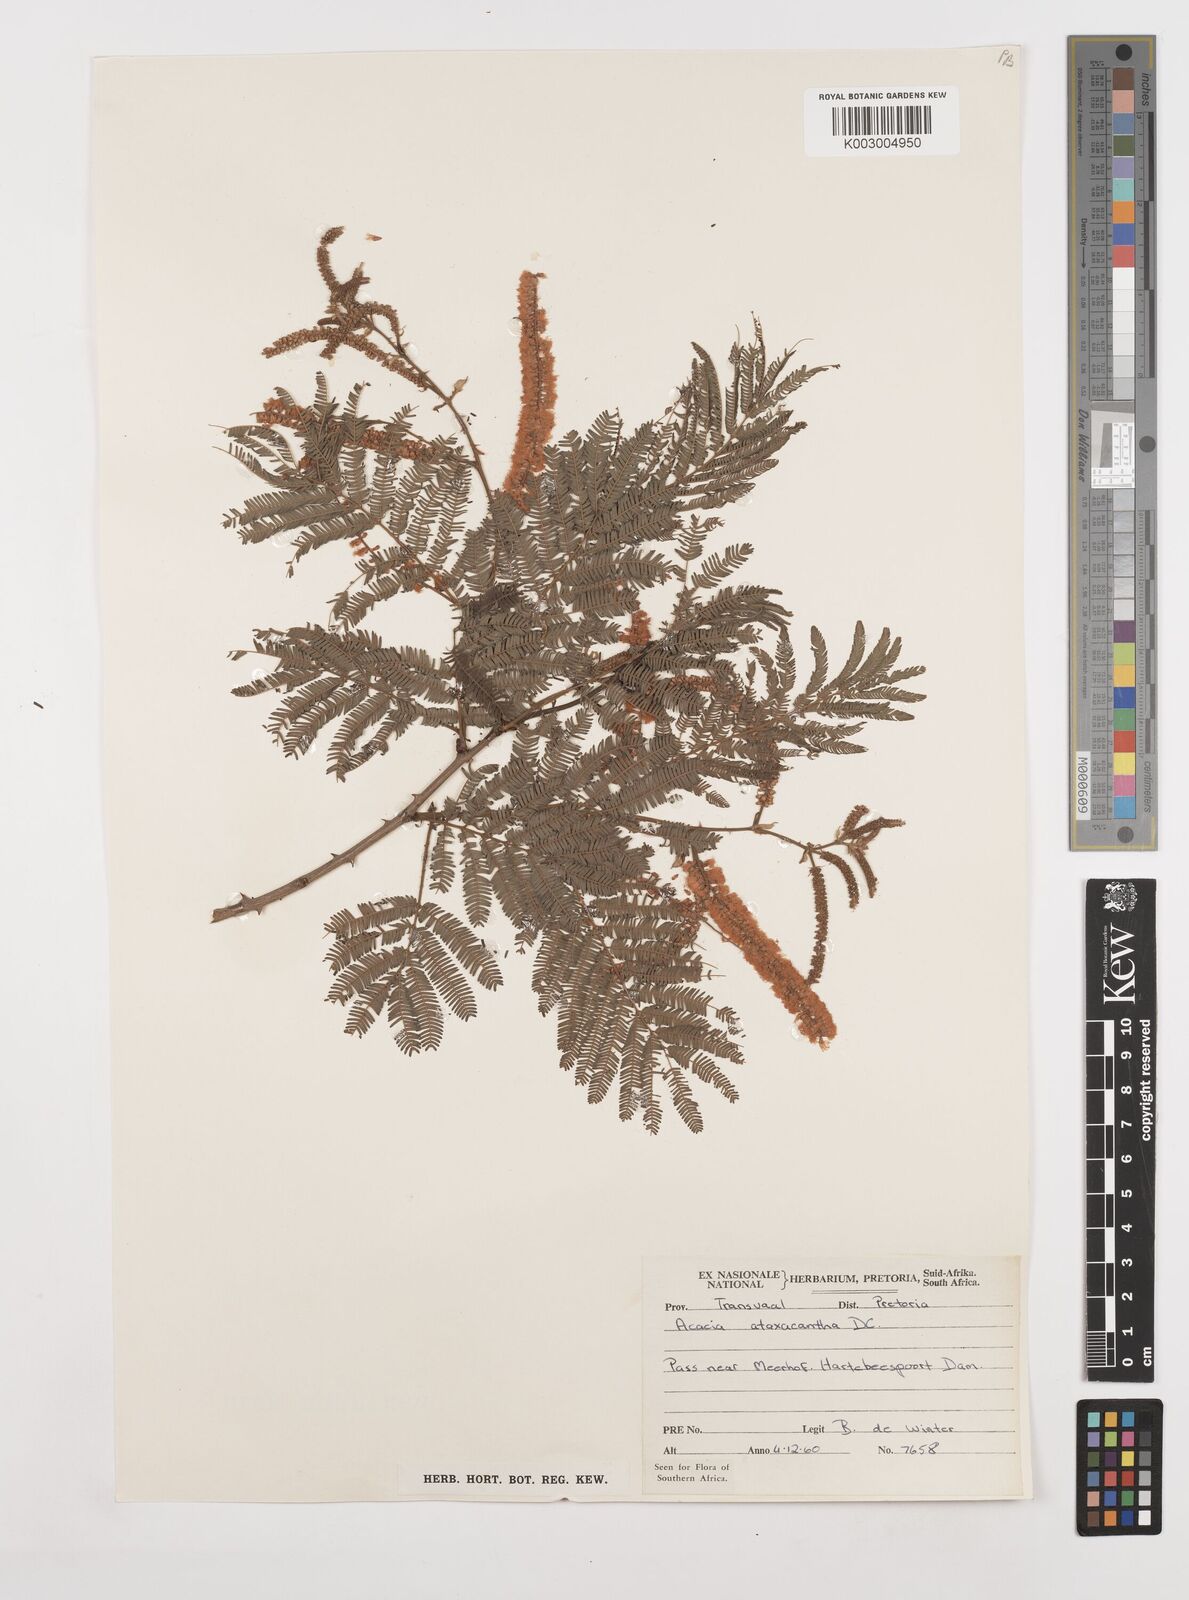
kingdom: Plantae
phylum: Tracheophyta
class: Magnoliopsida
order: Fabales
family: Fabaceae
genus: Senegalia
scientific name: Senegalia ataxacantha
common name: Flame acacia
